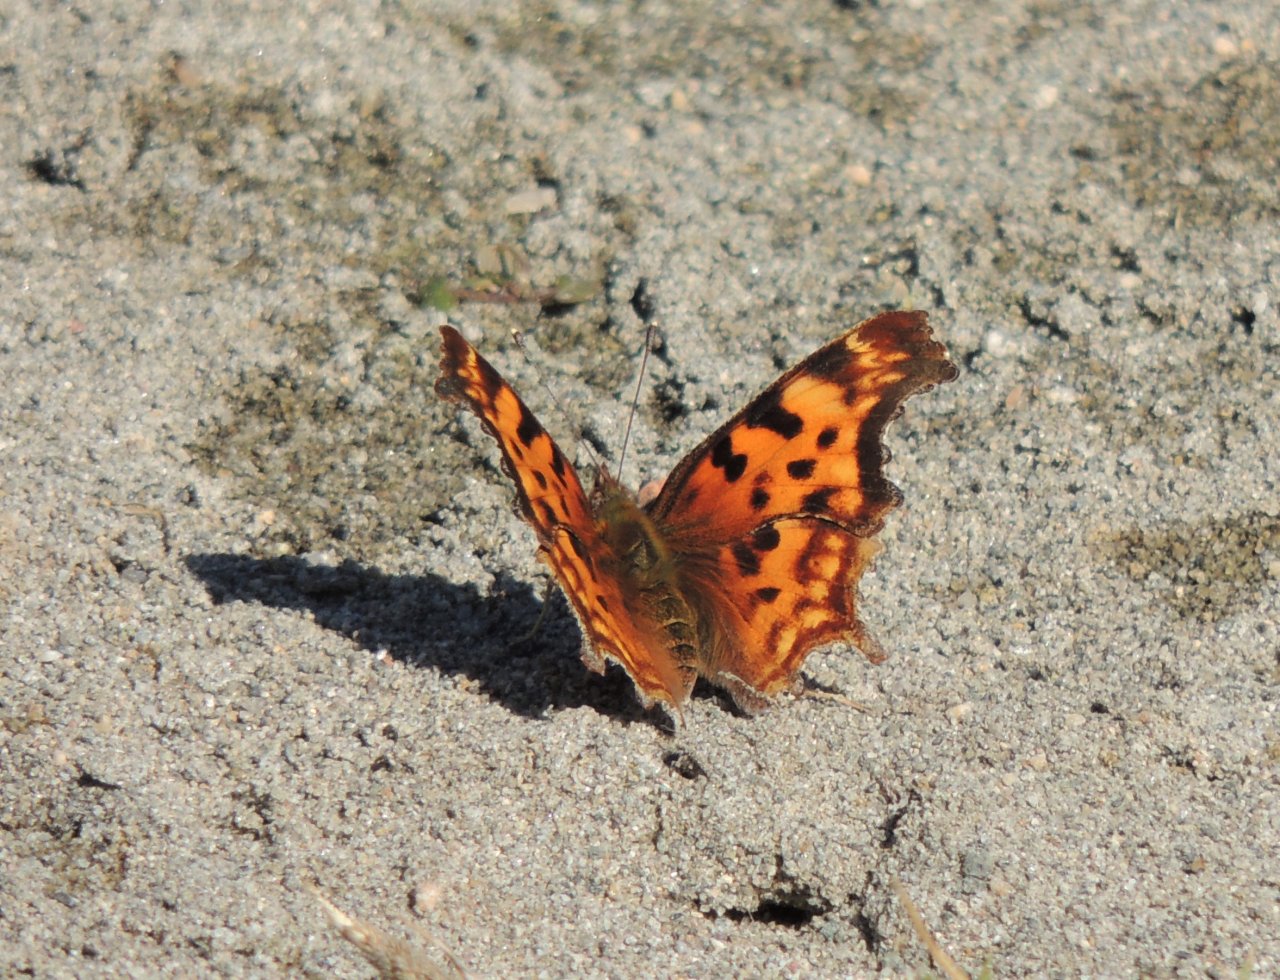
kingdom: Animalia
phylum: Arthropoda
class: Insecta
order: Lepidoptera
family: Nymphalidae
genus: Polygonia
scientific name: Polygonia satyrus
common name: Satyr Comma
